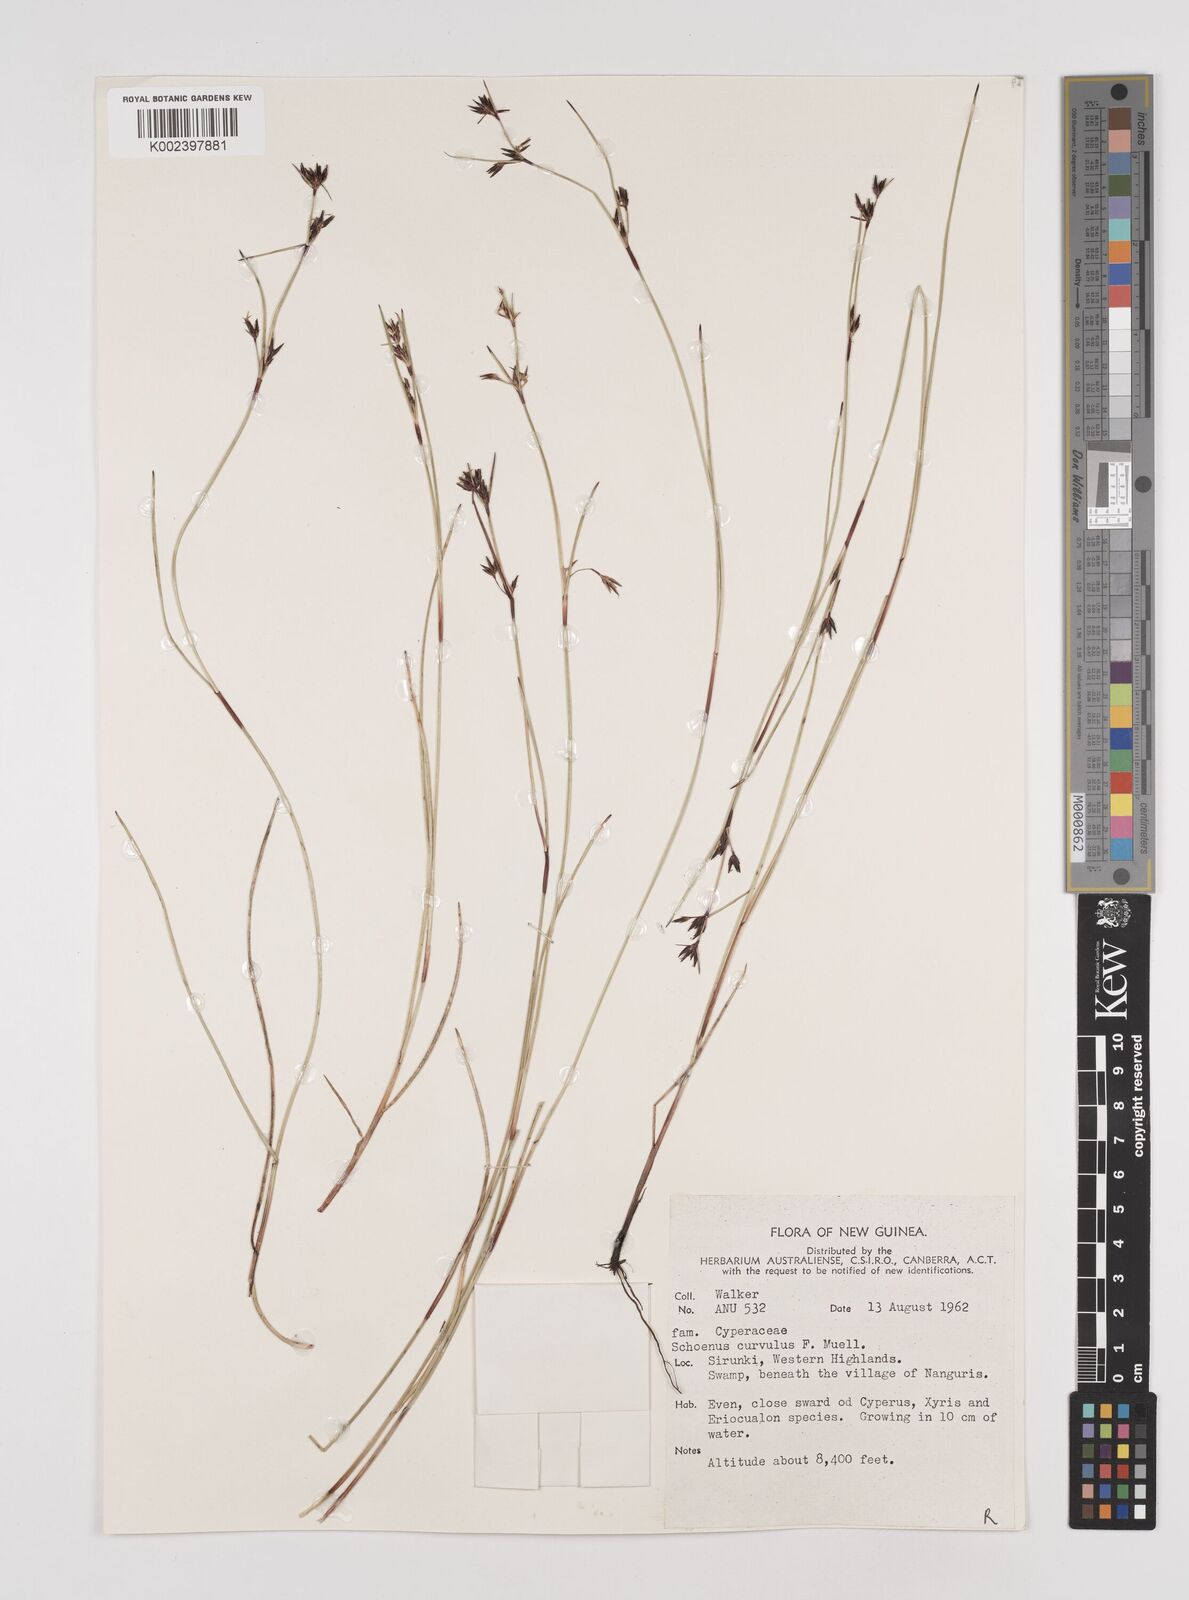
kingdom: Plantae
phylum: Tracheophyta
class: Liliopsida
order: Poales
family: Cyperaceae
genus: Schoenus
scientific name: Schoenus curvulus
